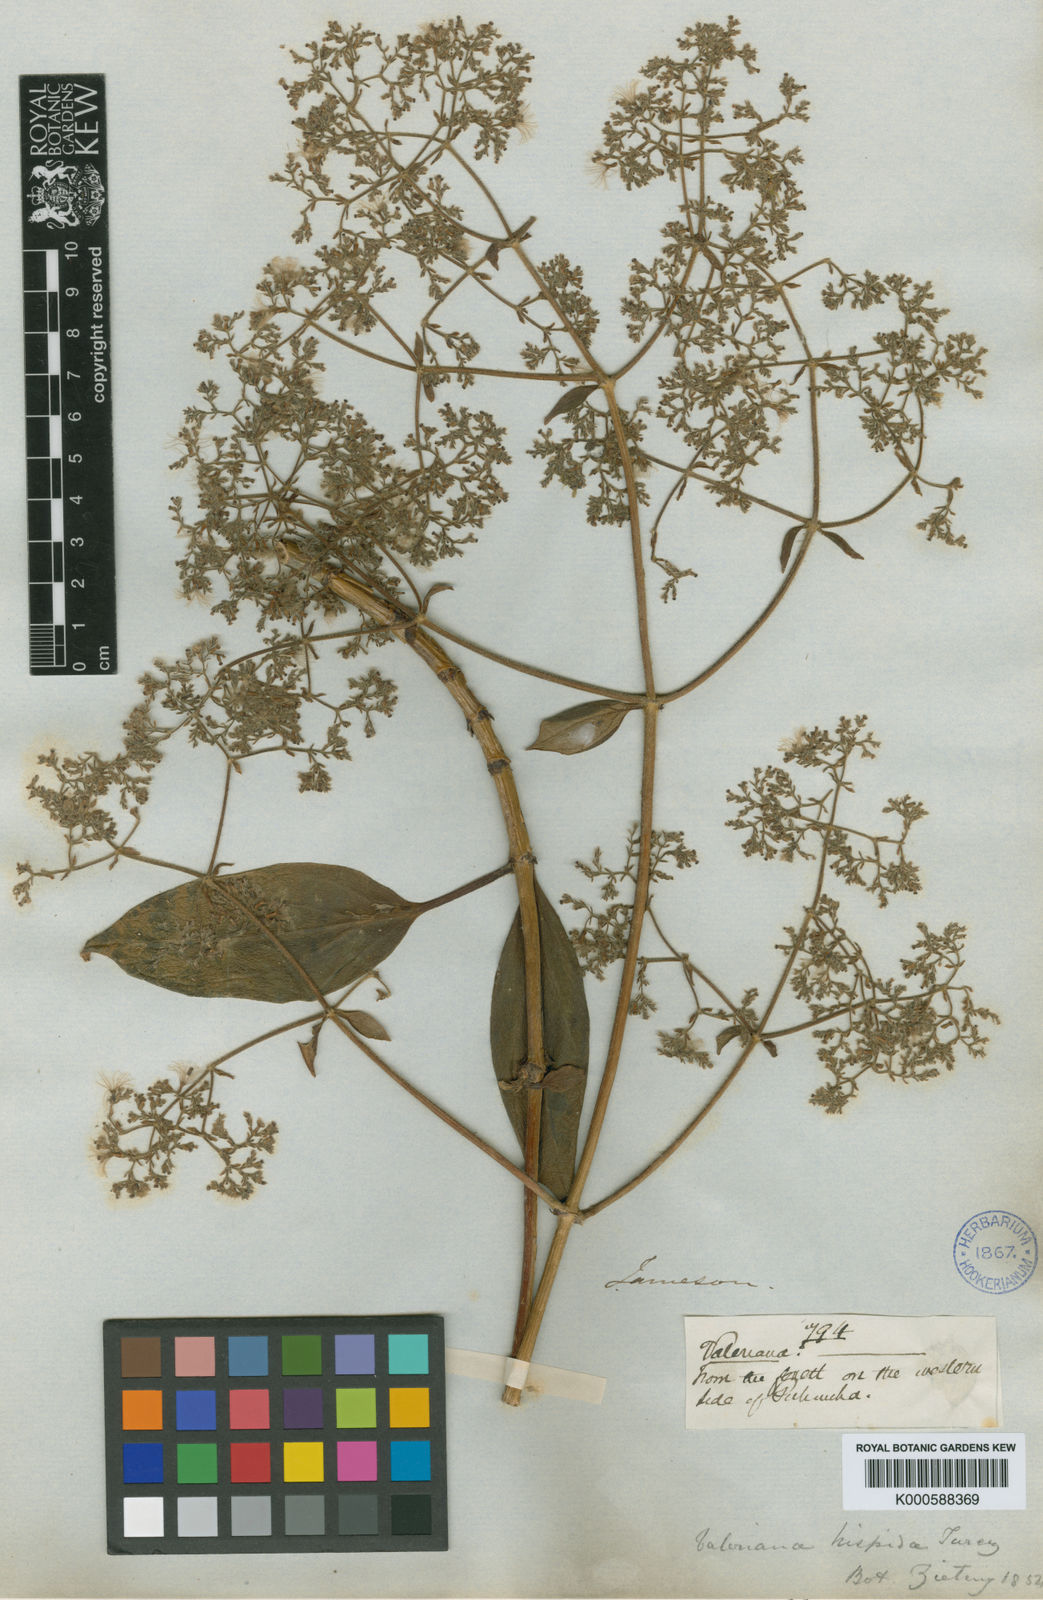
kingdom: Plantae
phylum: Tracheophyta
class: Magnoliopsida
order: Dipsacales
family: Caprifoliaceae
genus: Valeriana
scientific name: Valeriana clematitis
